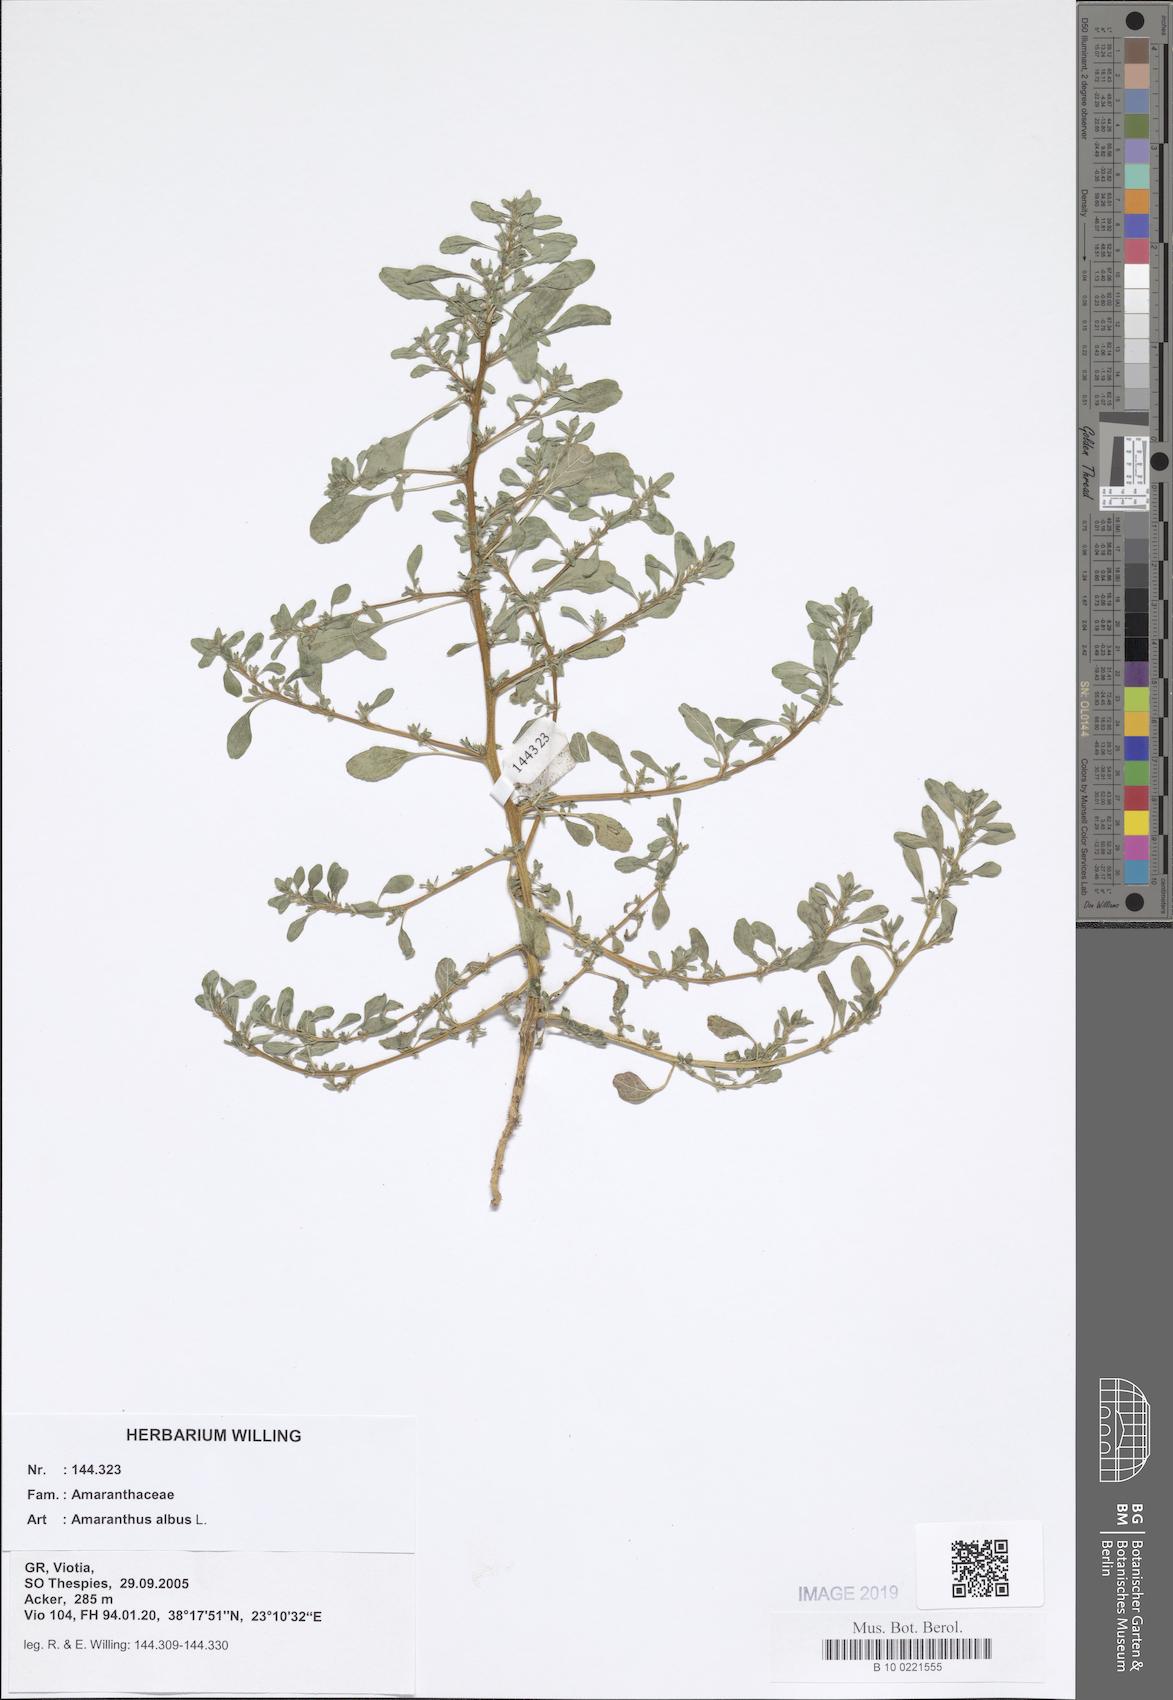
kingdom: Plantae
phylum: Tracheophyta
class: Magnoliopsida
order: Caryophyllales
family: Amaranthaceae
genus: Amaranthus
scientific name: Amaranthus albus
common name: White pigweed
